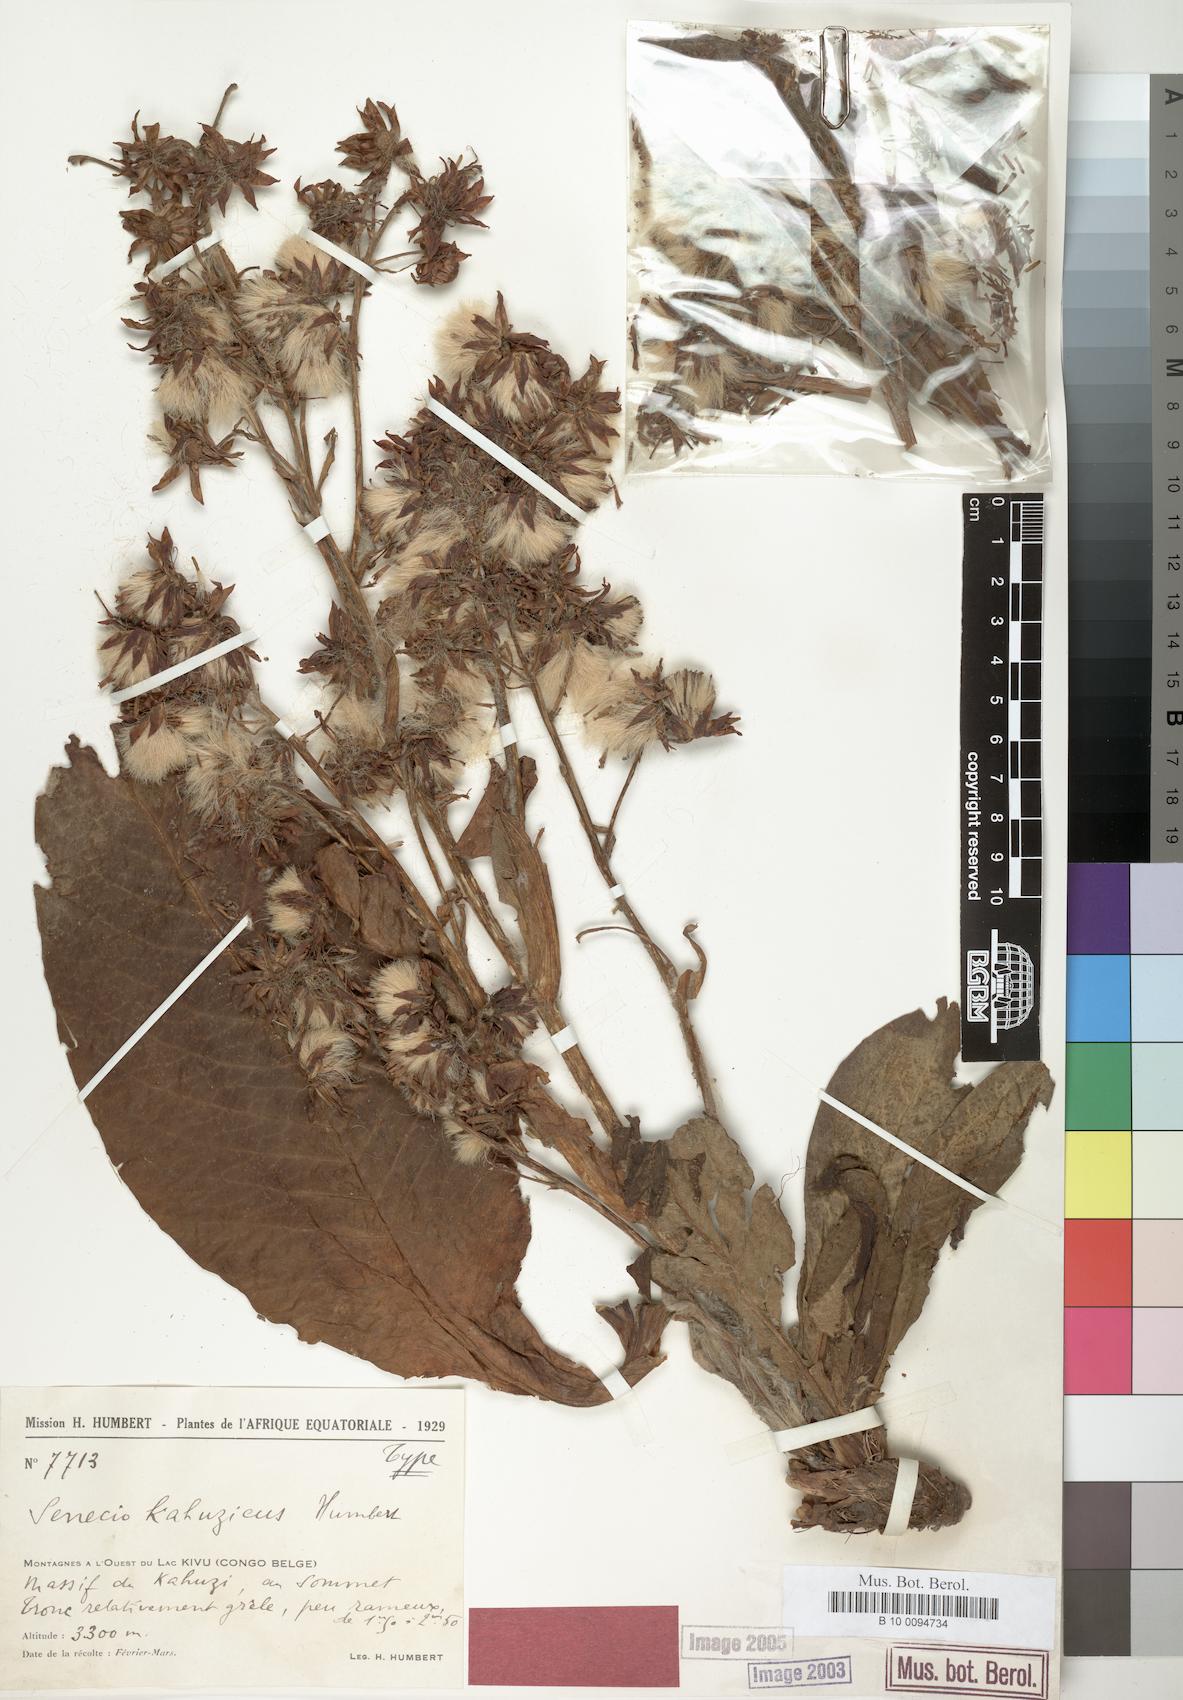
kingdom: Plantae
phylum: Tracheophyta
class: Magnoliopsida
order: Asterales
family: Asteraceae
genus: Dendrosenecio
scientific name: Dendrosenecio erici-rosenii
